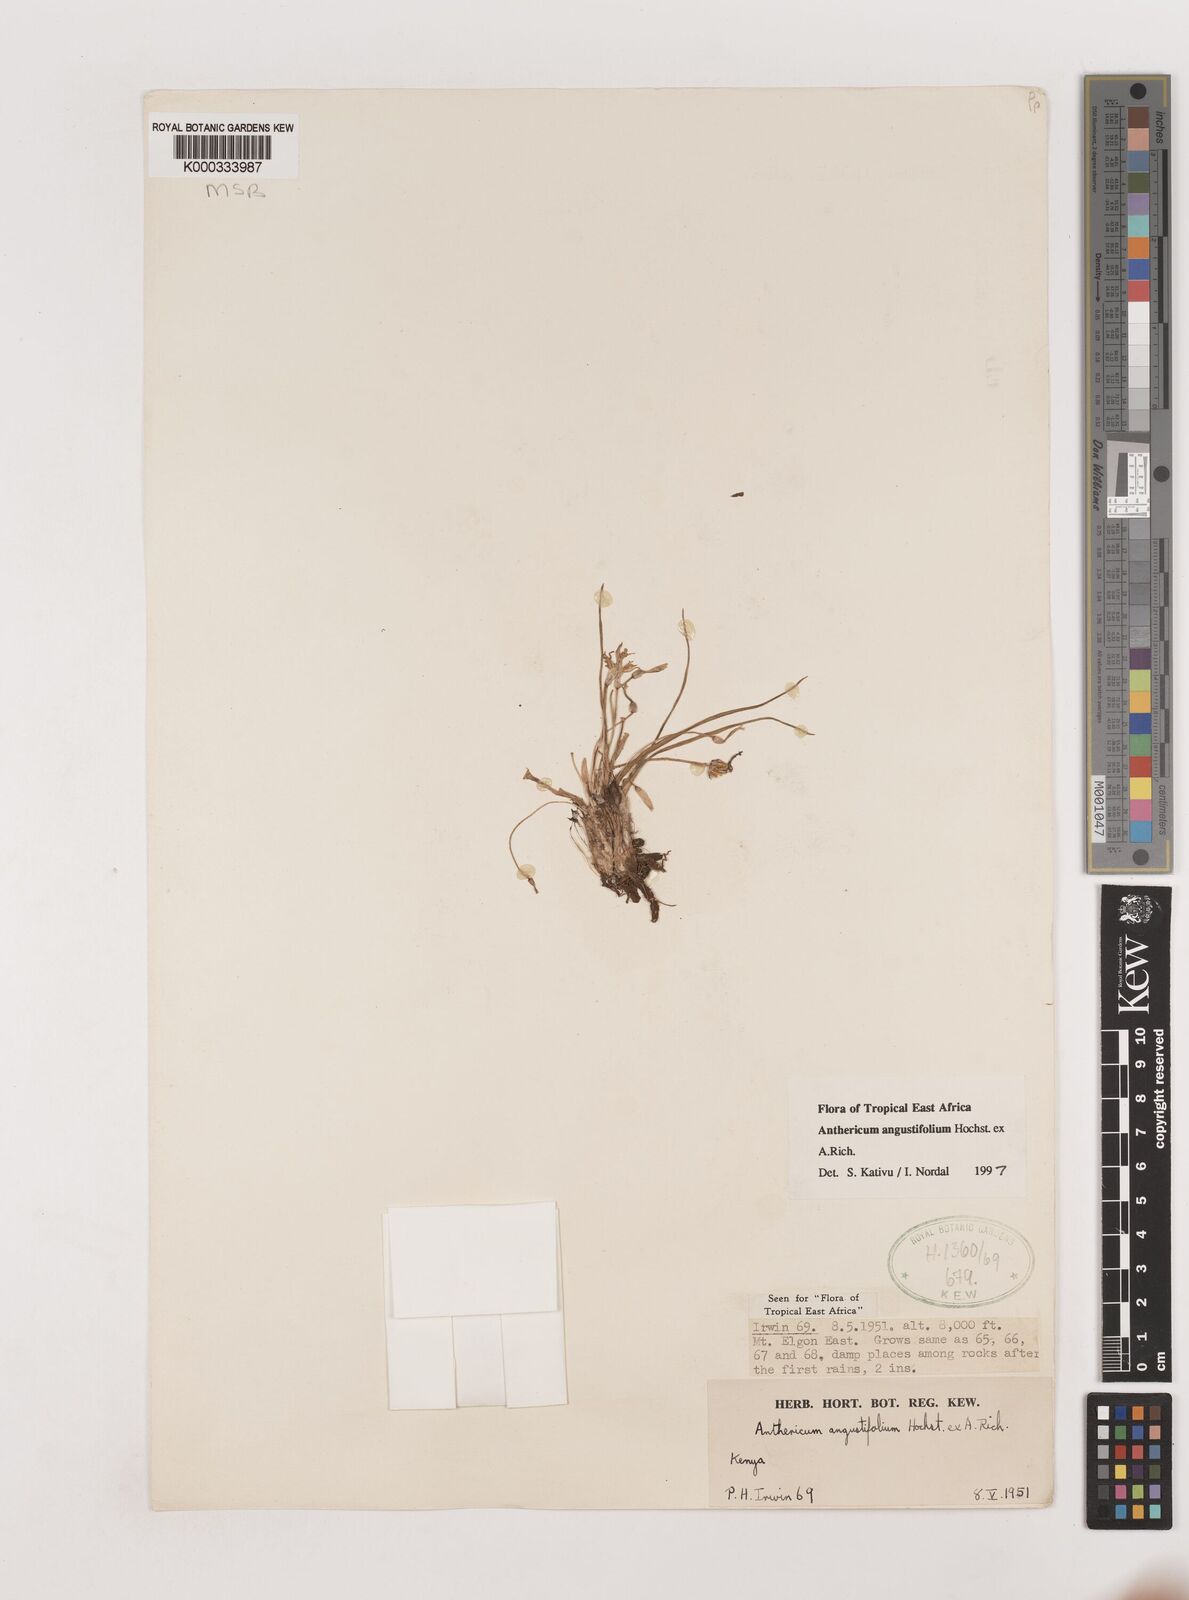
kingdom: Plantae
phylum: Tracheophyta
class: Liliopsida
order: Asparagales
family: Asparagaceae
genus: Anthericum
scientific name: Anthericum angustifolium
